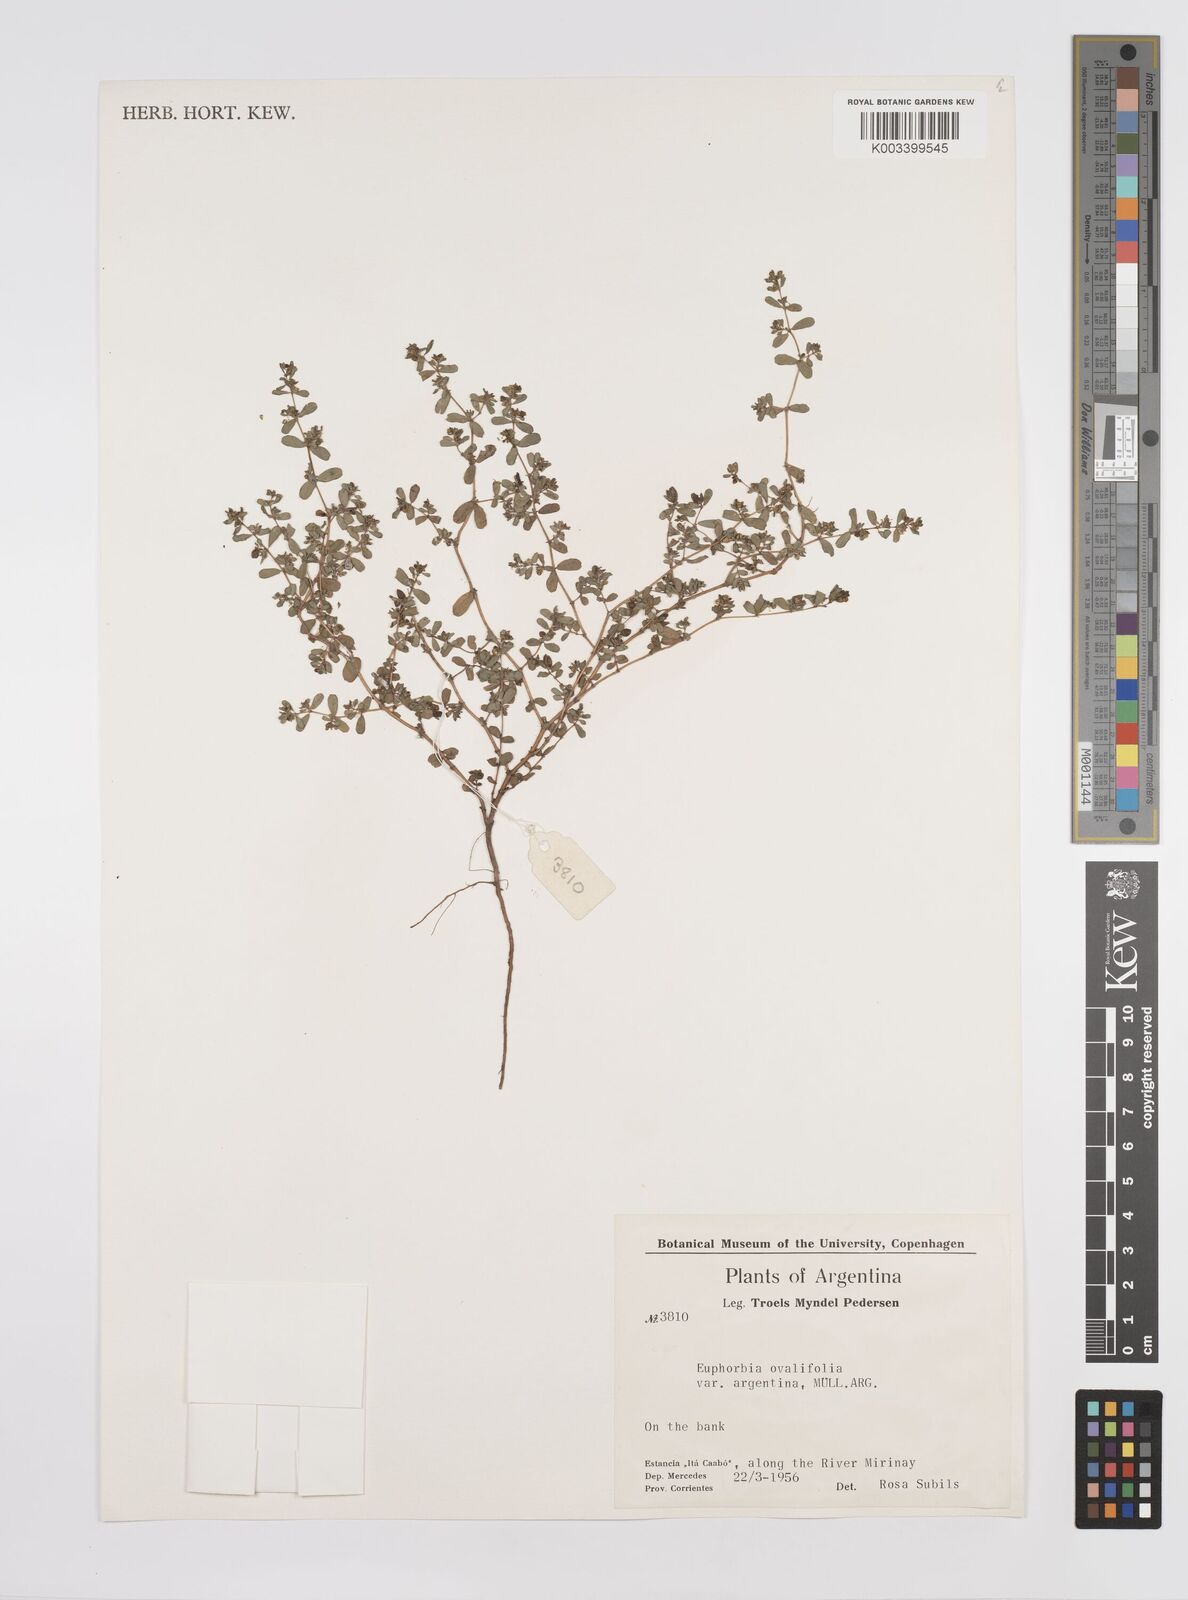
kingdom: Plantae
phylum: Tracheophyta
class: Magnoliopsida
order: Malpighiales
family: Euphorbiaceae
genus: Euphorbia
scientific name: Euphorbia klotzschii
